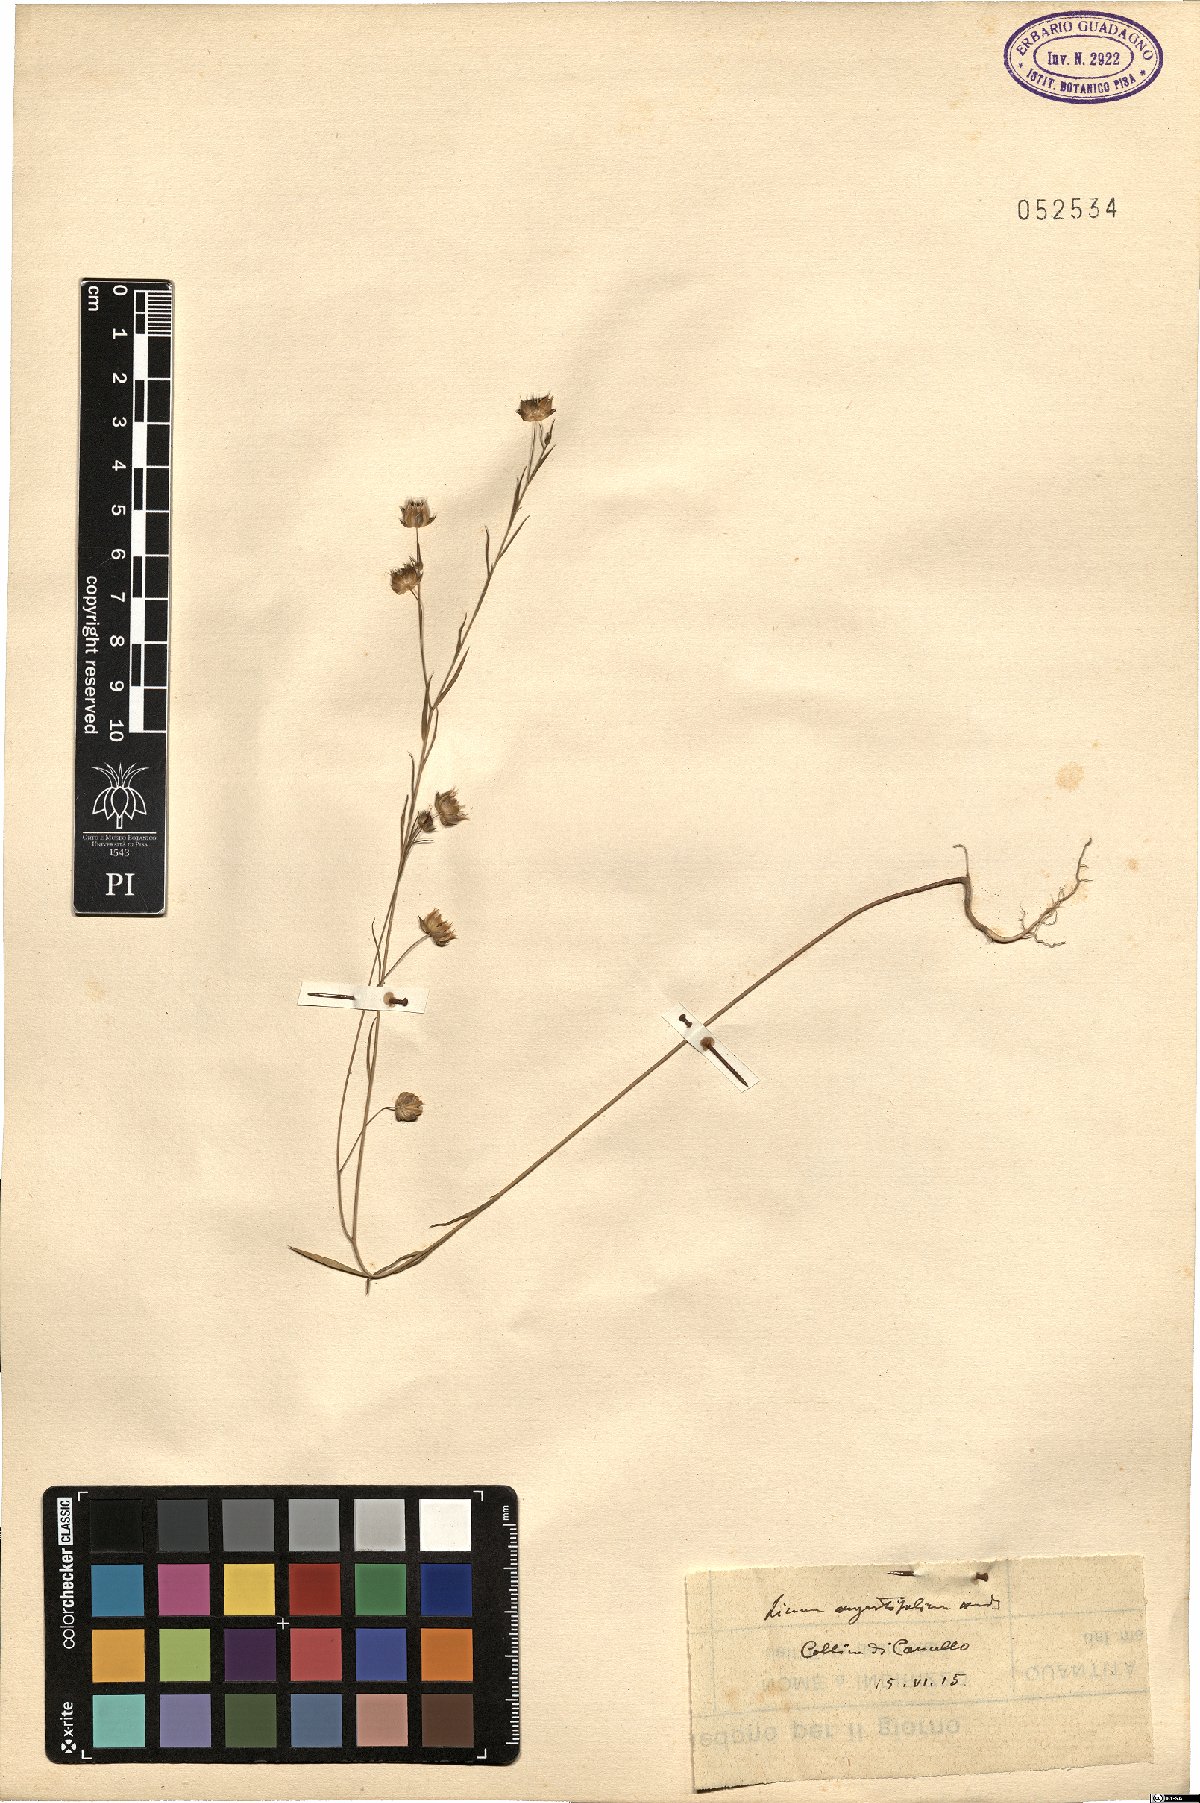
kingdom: Plantae
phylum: Tracheophyta
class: Magnoliopsida
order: Malpighiales
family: Linaceae
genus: Linum
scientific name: Linum bienne
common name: Pale flax
